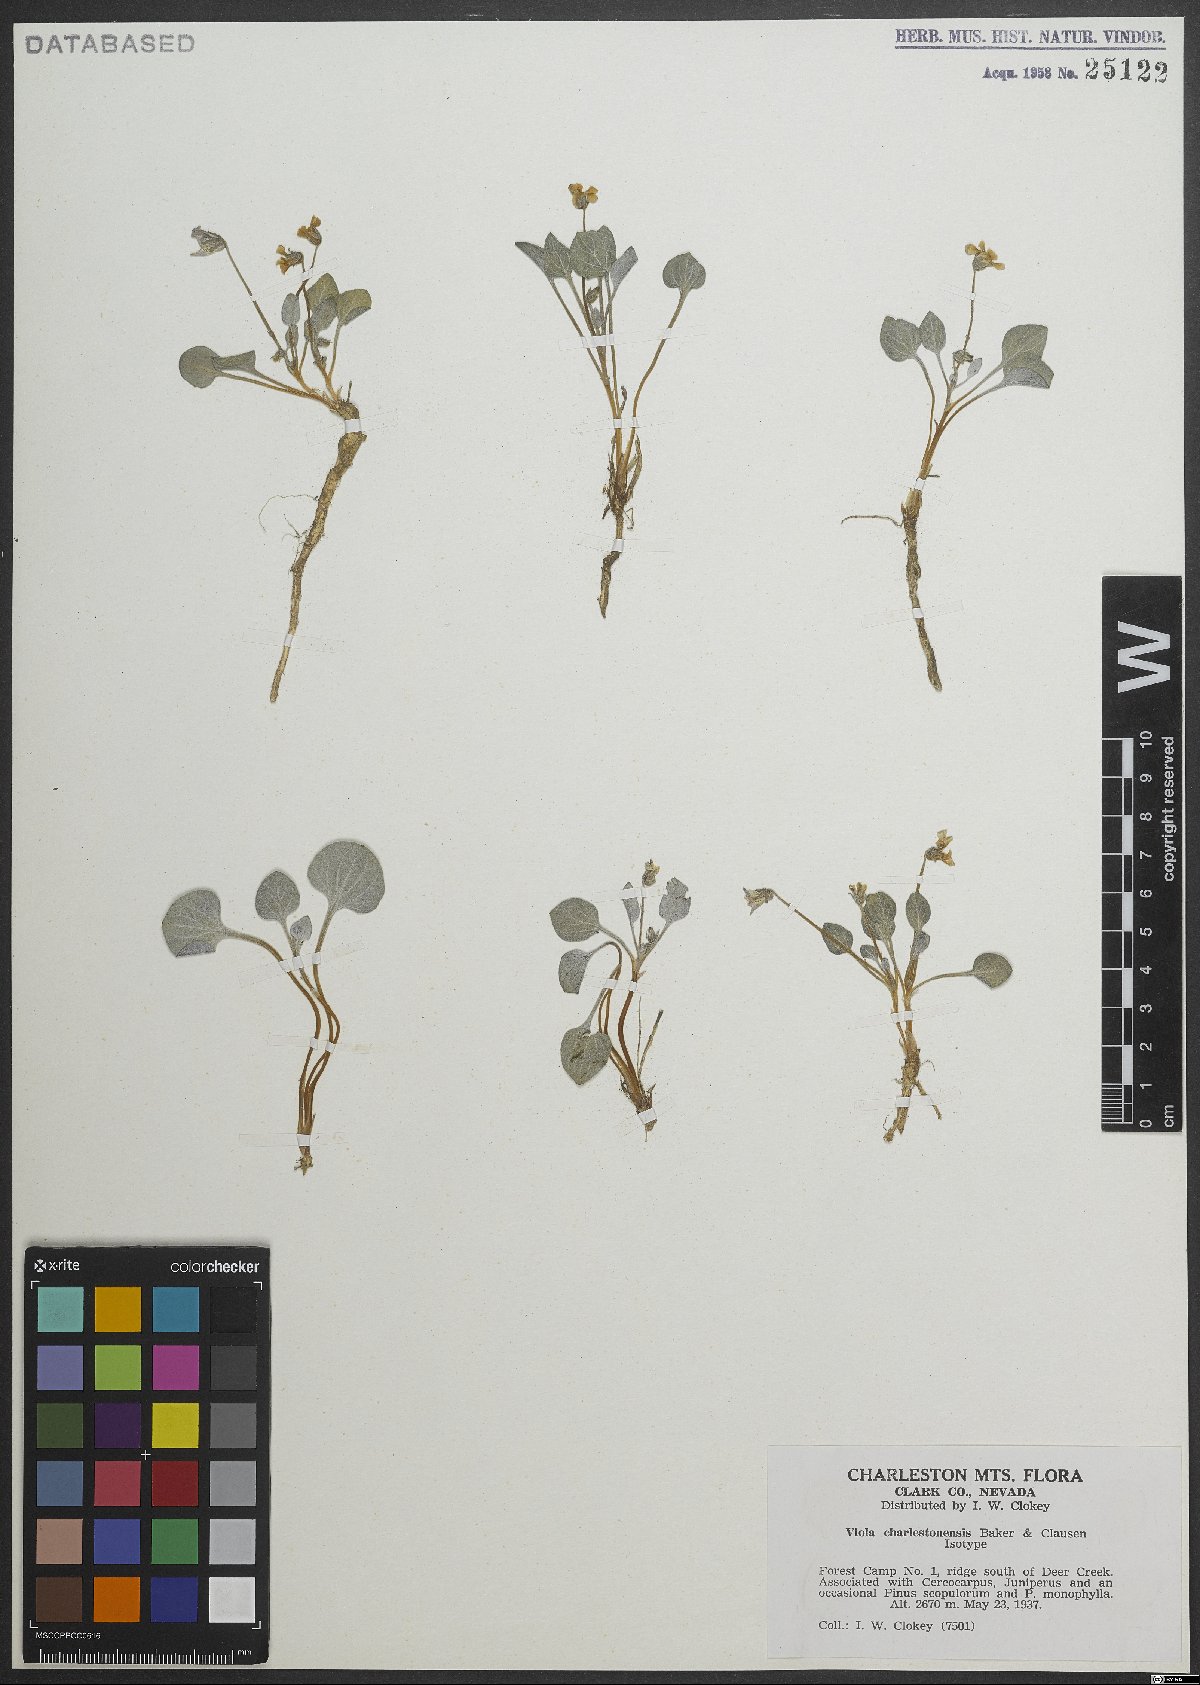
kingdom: Plantae
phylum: Tracheophyta
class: Magnoliopsida
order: Malpighiales
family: Violaceae
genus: Viola
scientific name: Viola charlestonensis
